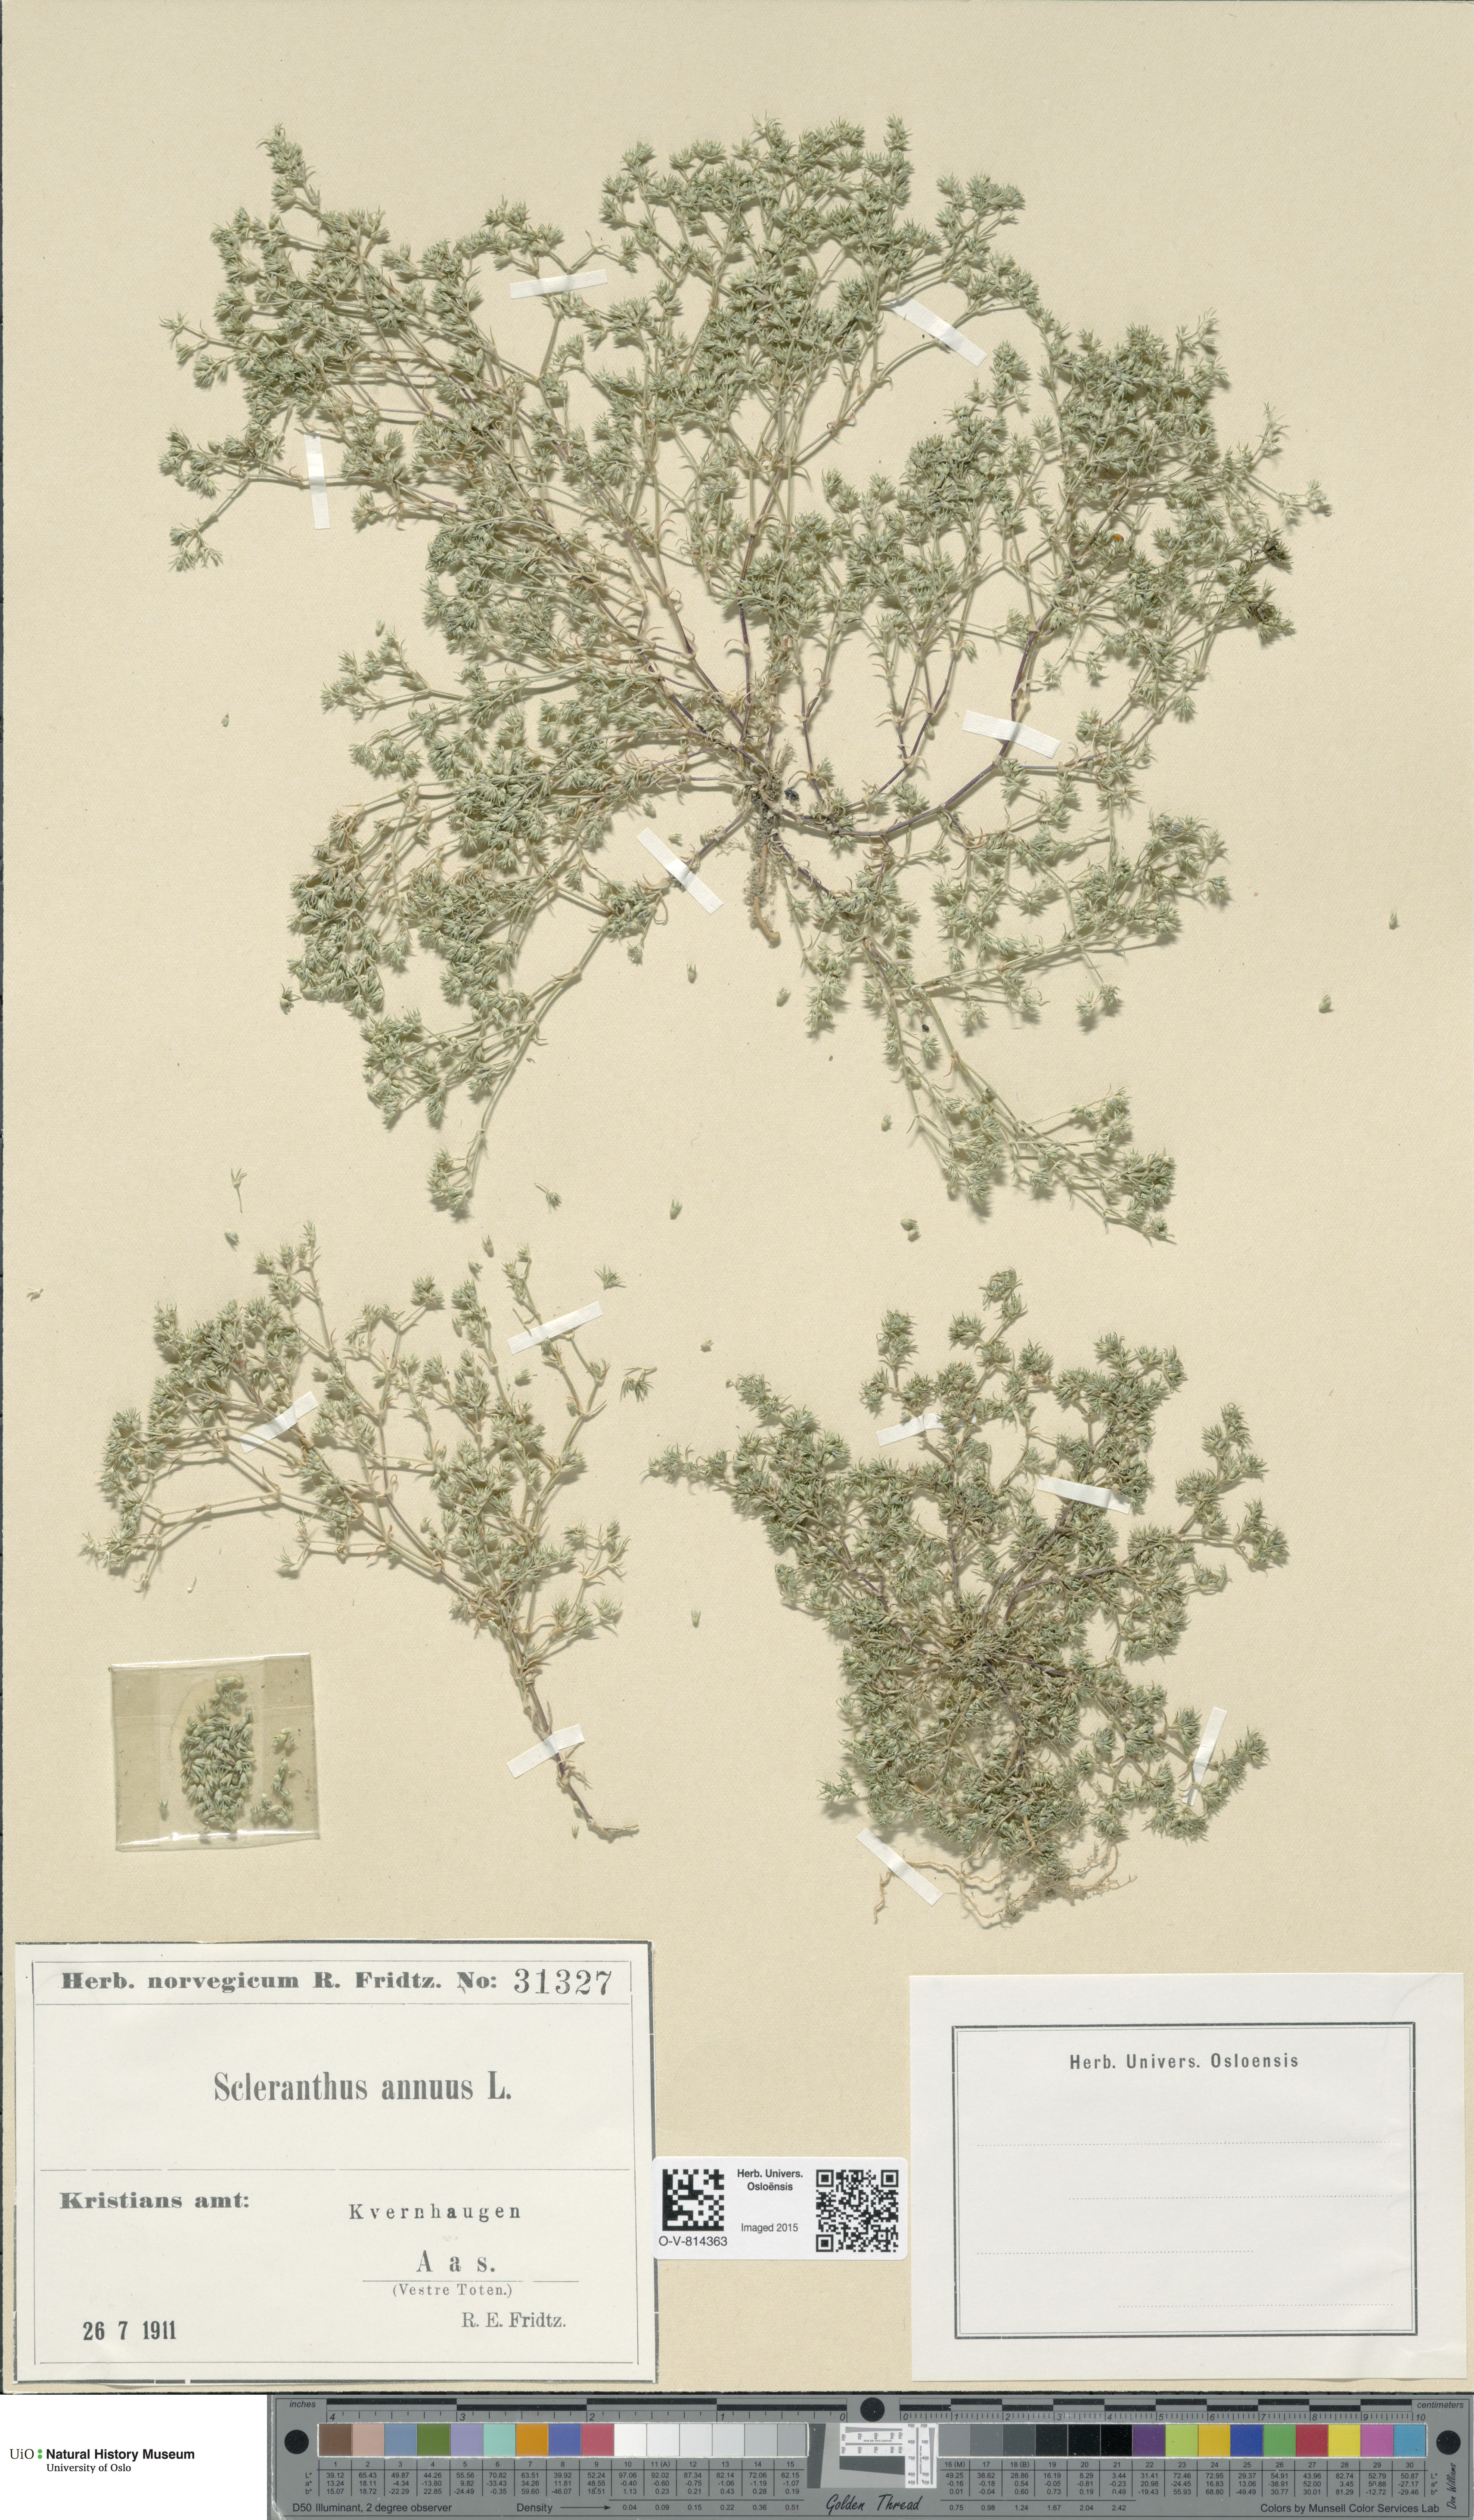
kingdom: Plantae
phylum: Tracheophyta
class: Magnoliopsida
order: Caryophyllales
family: Caryophyllaceae
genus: Scleranthus
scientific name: Scleranthus annuus
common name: Annual knawel
